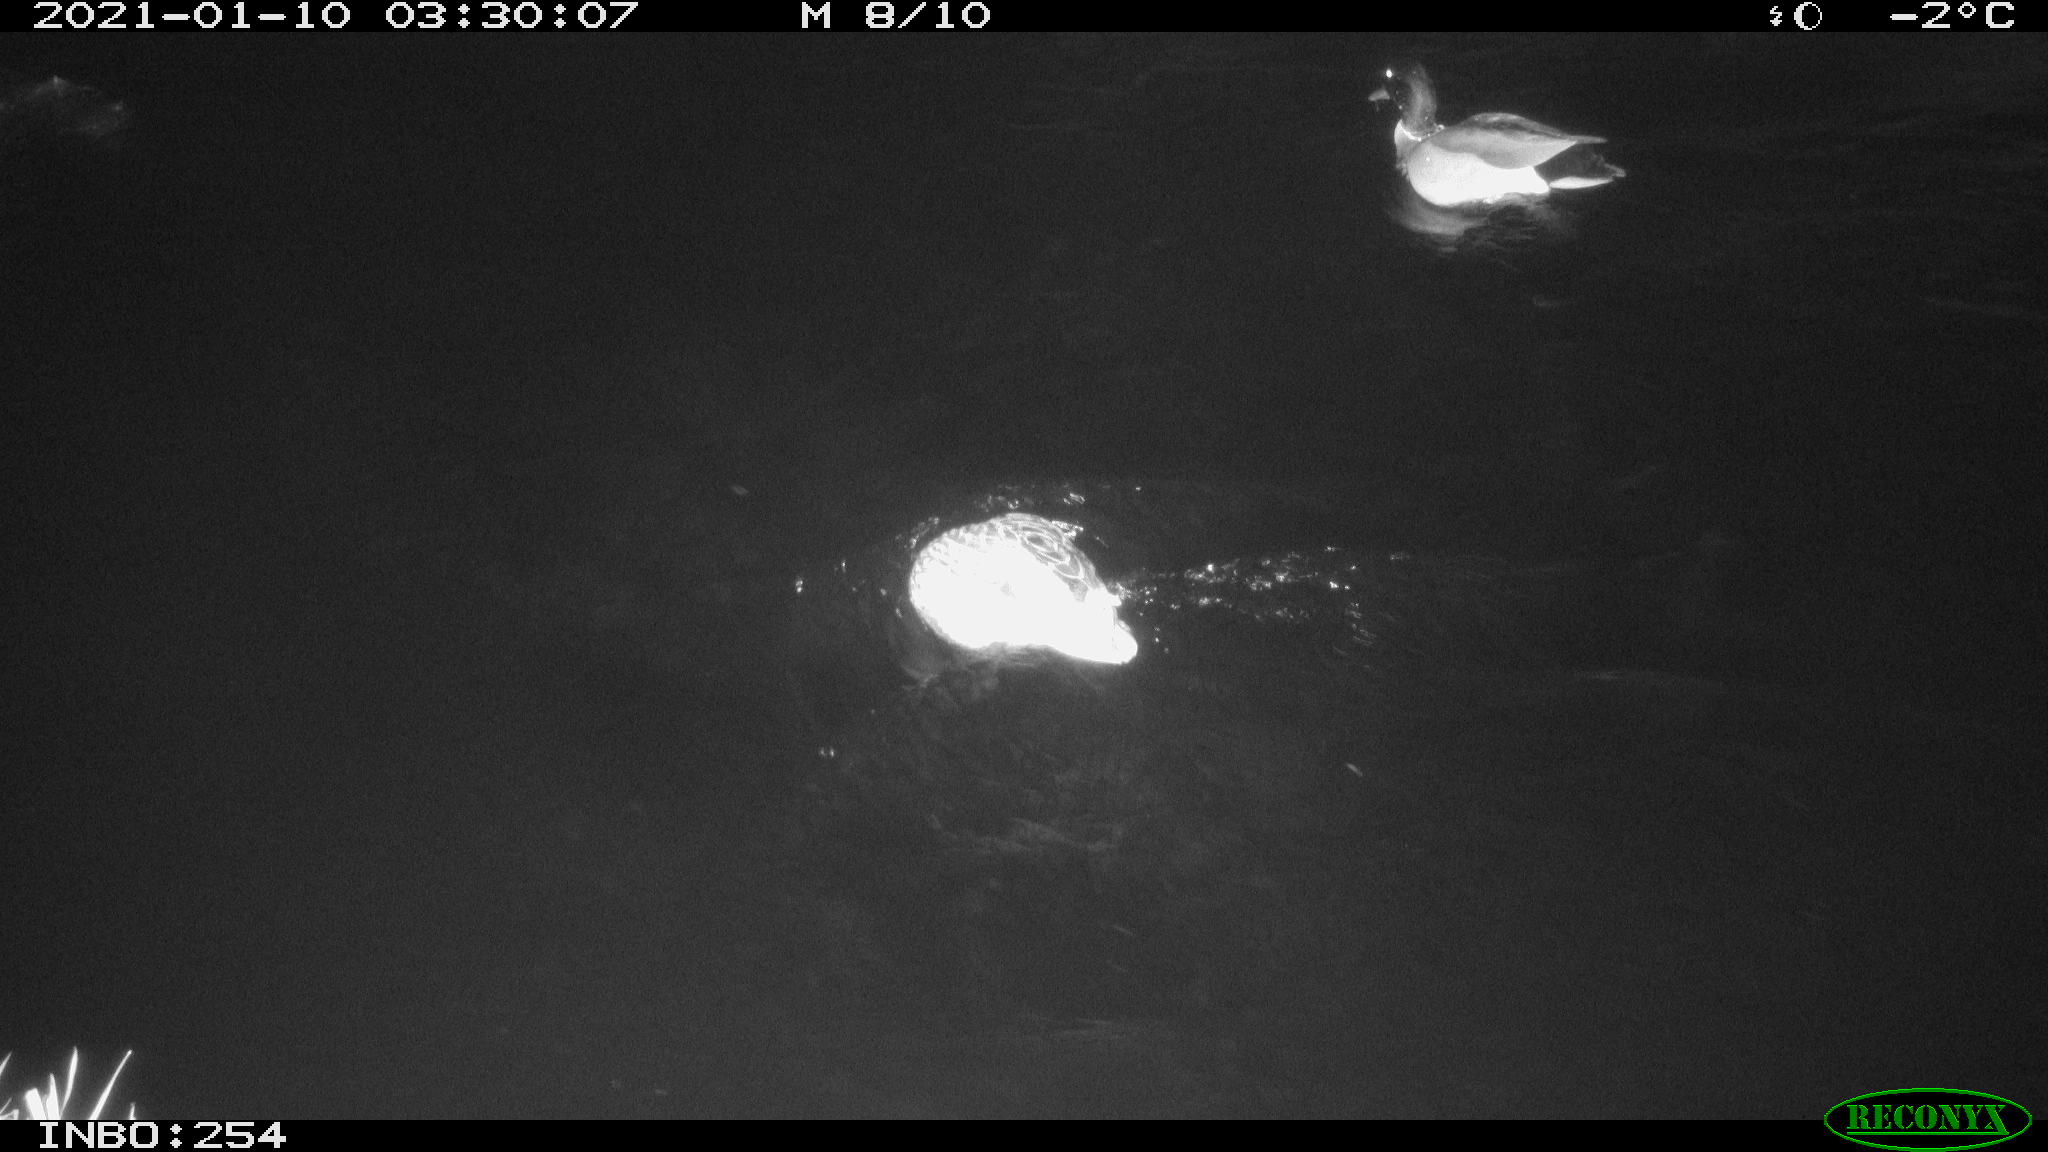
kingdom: Animalia
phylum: Chordata
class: Aves
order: Anseriformes
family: Anatidae
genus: Anas
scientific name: Anas platyrhynchos
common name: Mallard
